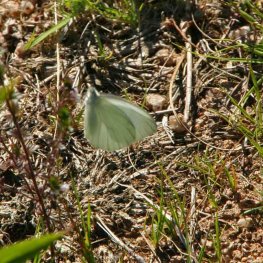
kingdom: Animalia
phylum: Arthropoda
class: Insecta
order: Lepidoptera
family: Pieridae
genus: Pieris
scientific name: Pieris oleracea
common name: Mustard White
